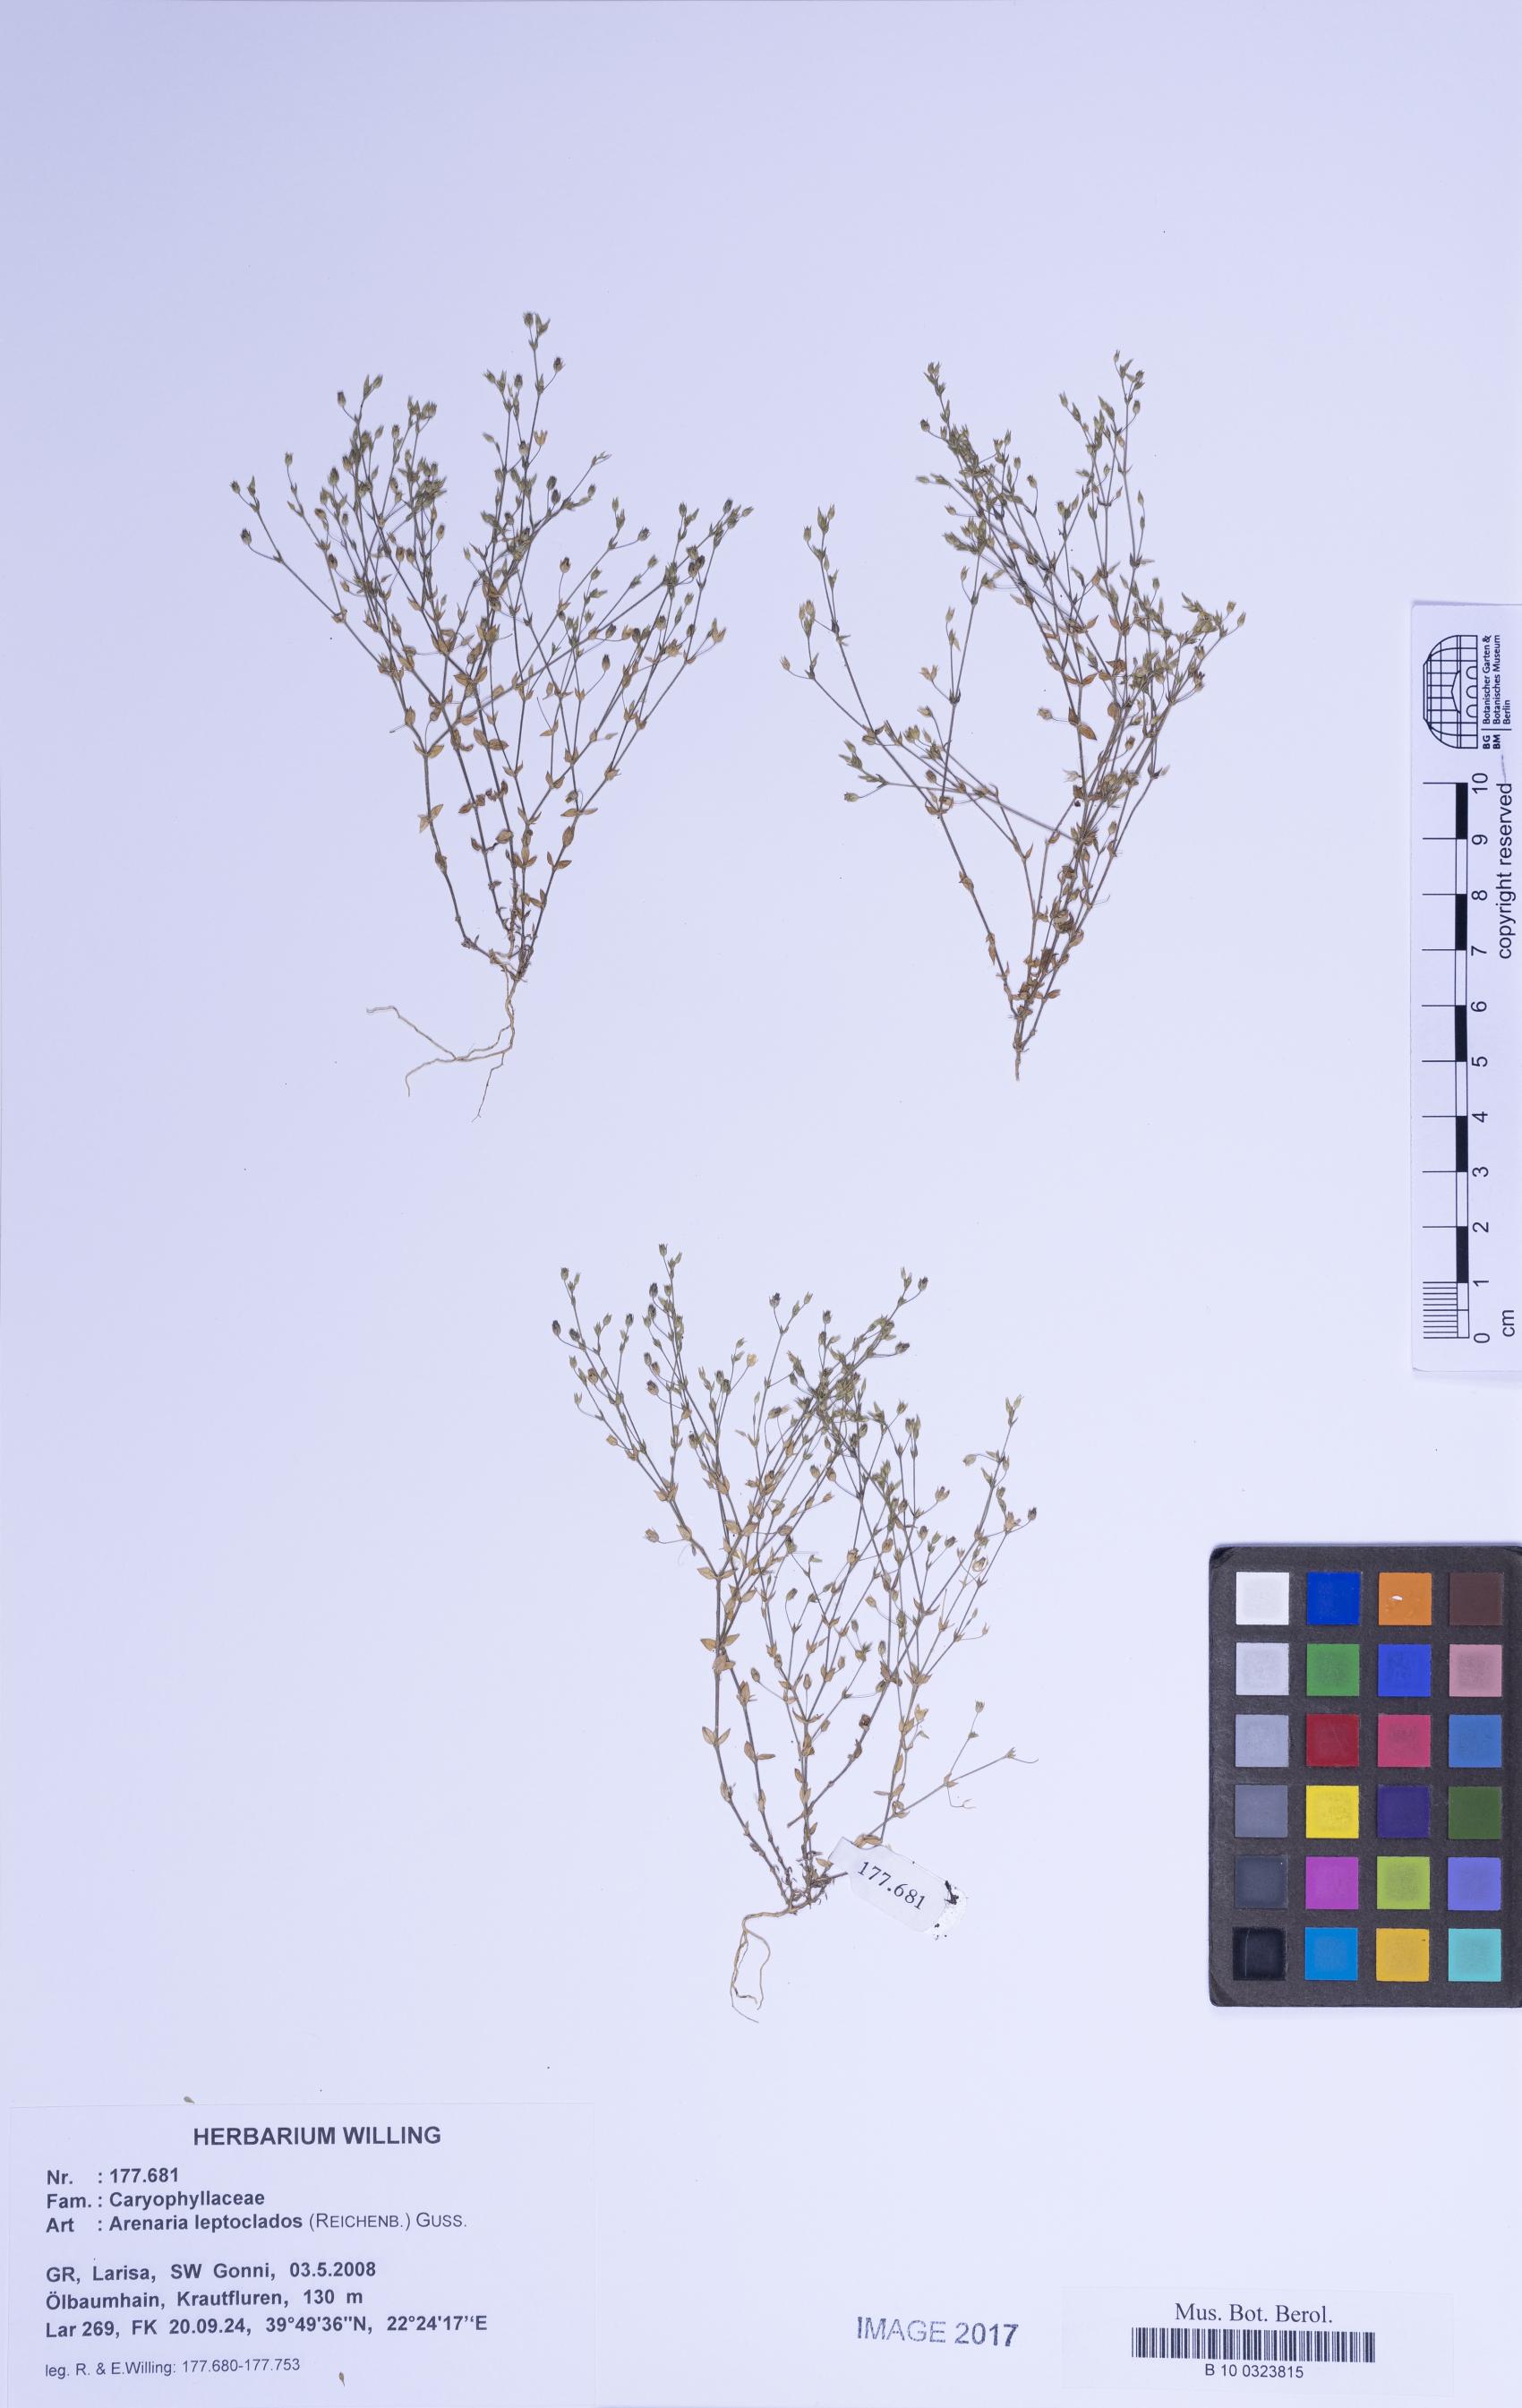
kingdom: Plantae
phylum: Tracheophyta
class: Magnoliopsida
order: Caryophyllales
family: Caryophyllaceae
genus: Arenaria
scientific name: Arenaria leptoclados
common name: Thyme-leaved sandwort
